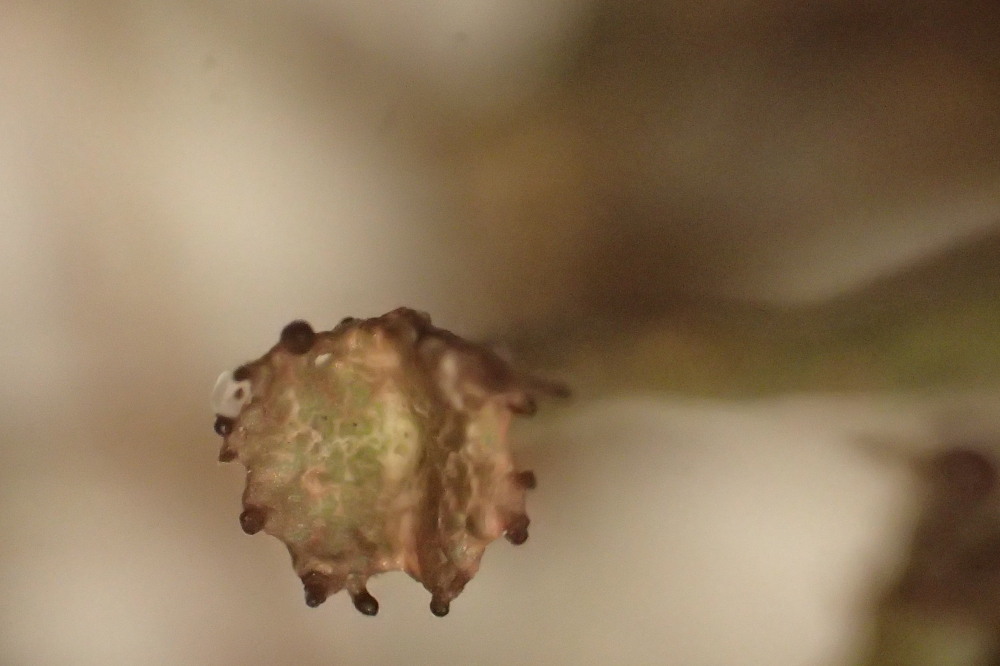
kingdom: Fungi
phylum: Ascomycota
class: Lecanoromycetes
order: Lecanorales
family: Cladoniaceae
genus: Cladonia
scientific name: Cladonia gracilis
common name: slank bægerlav
